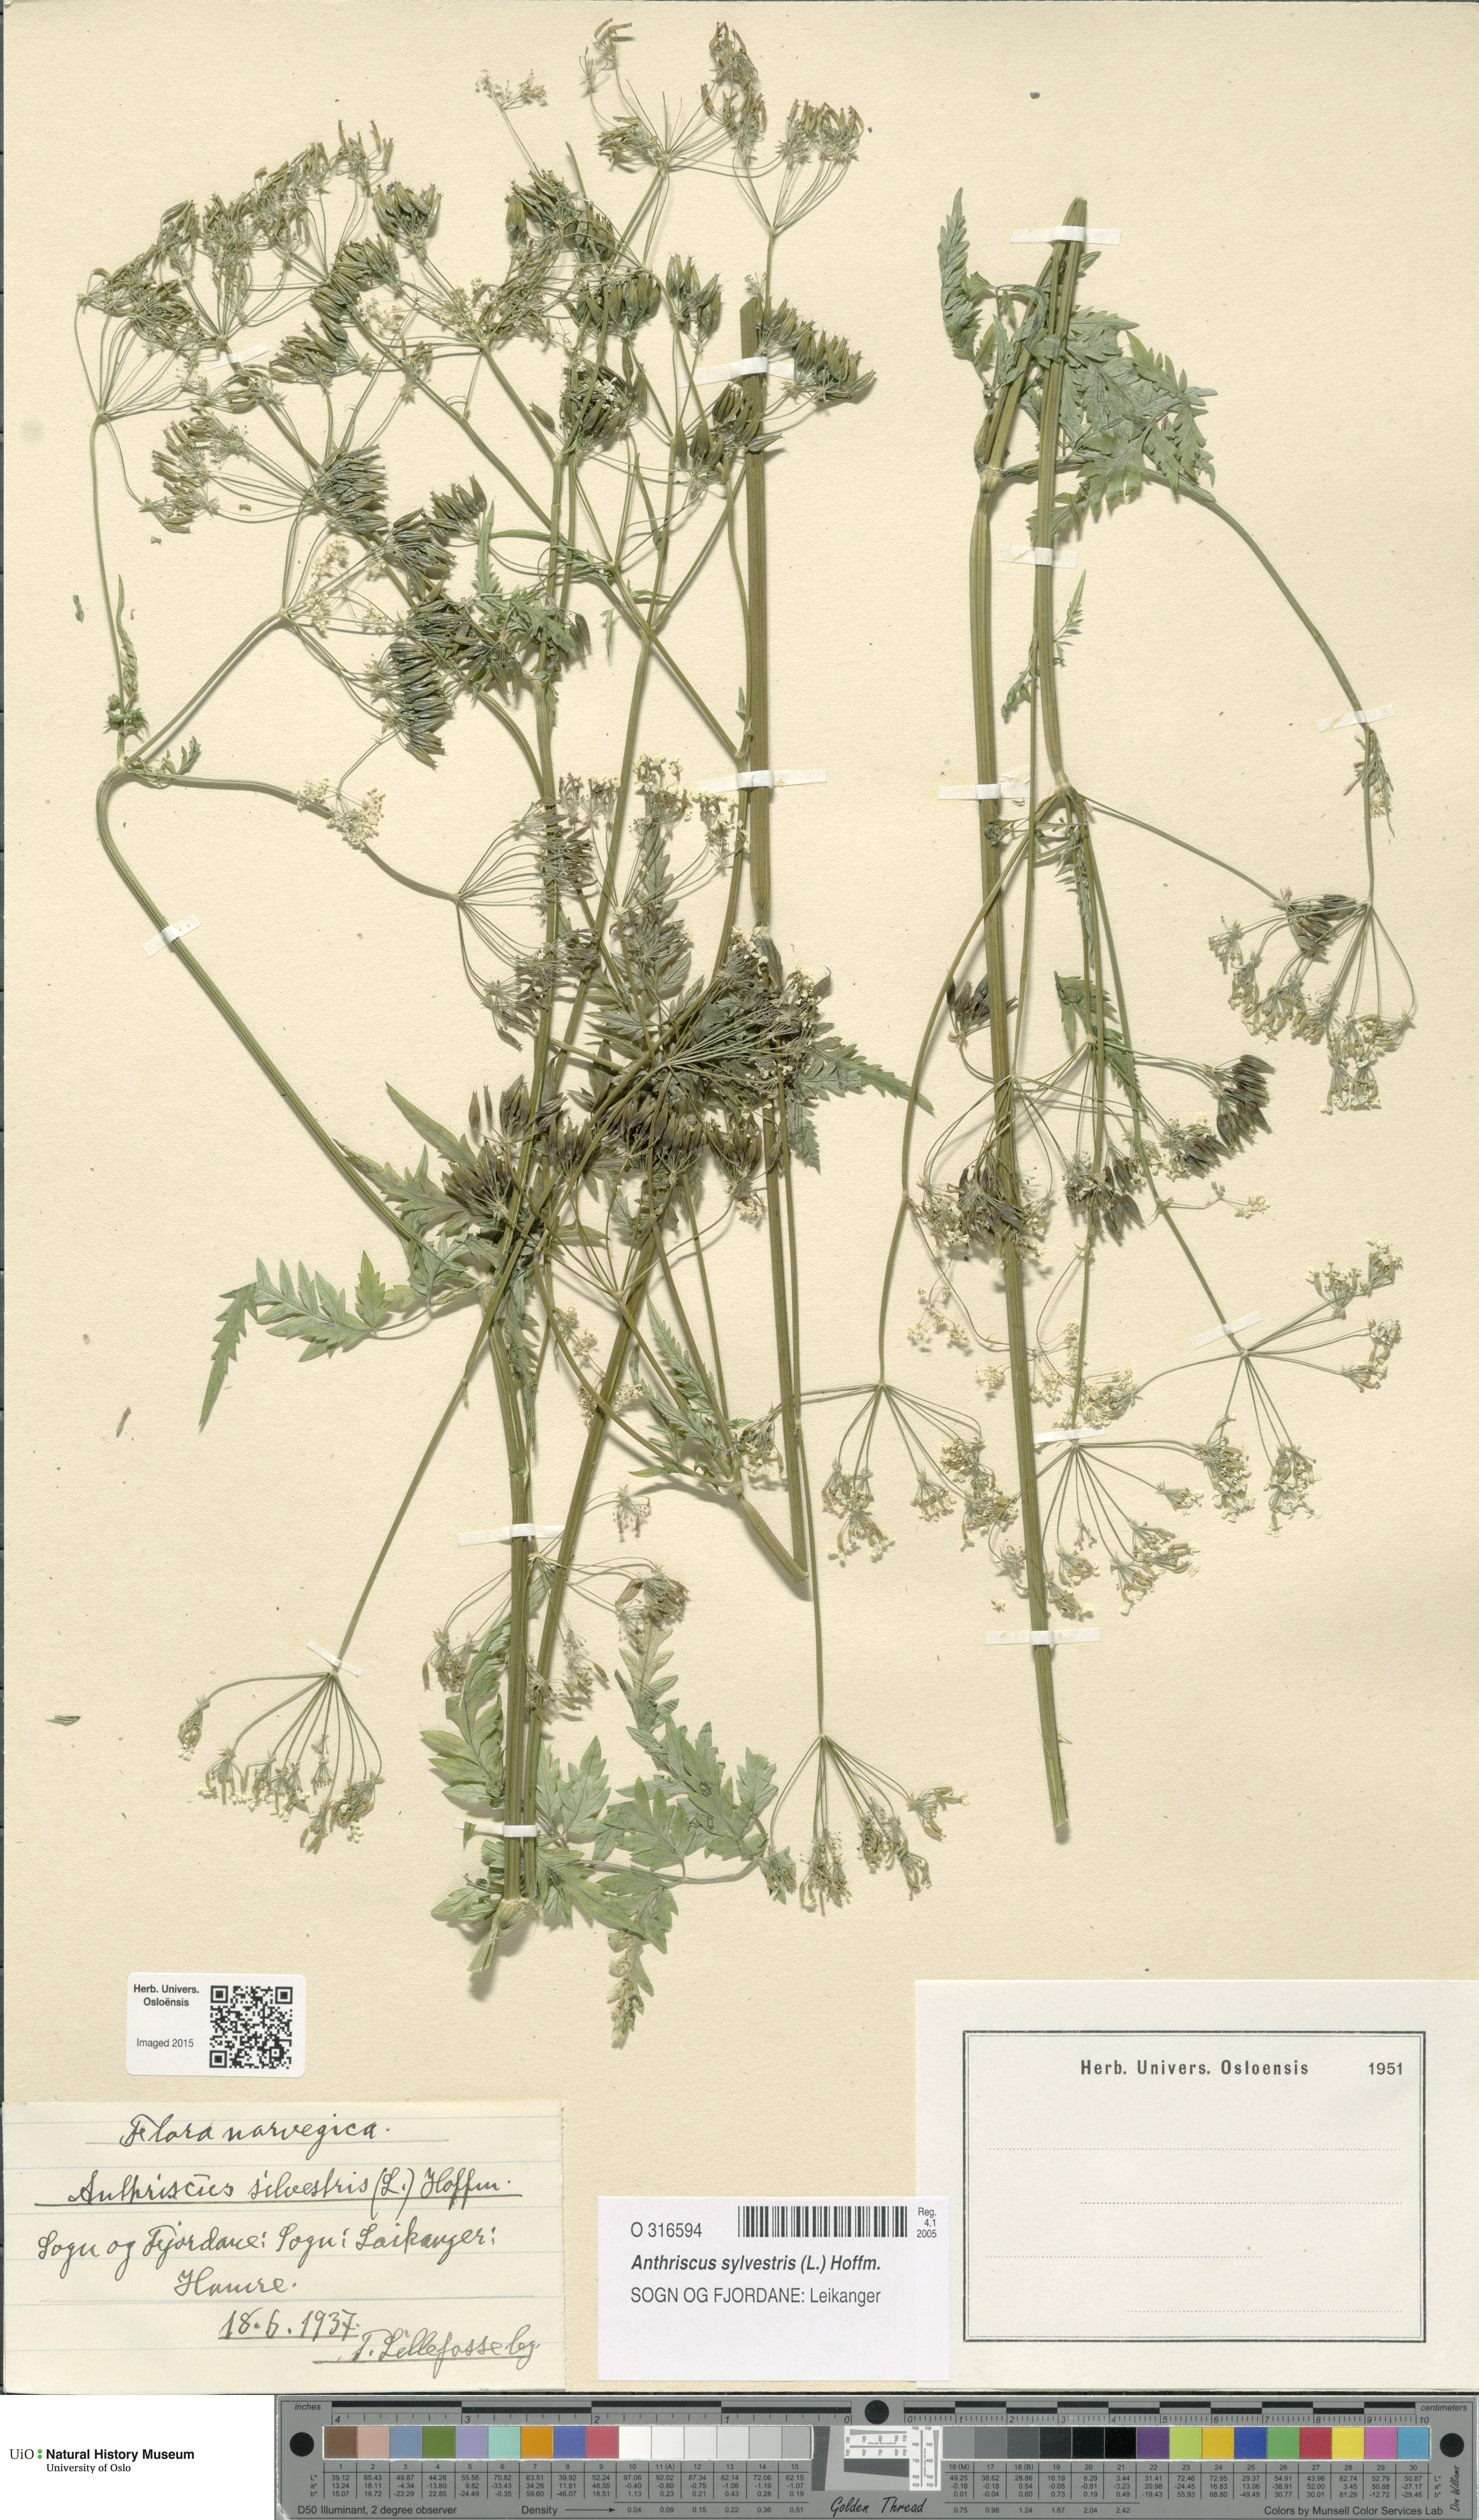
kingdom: Plantae
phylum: Tracheophyta
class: Magnoliopsida
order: Apiales
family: Apiaceae
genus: Anthriscus
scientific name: Anthriscus sylvestris
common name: Cow parsley
